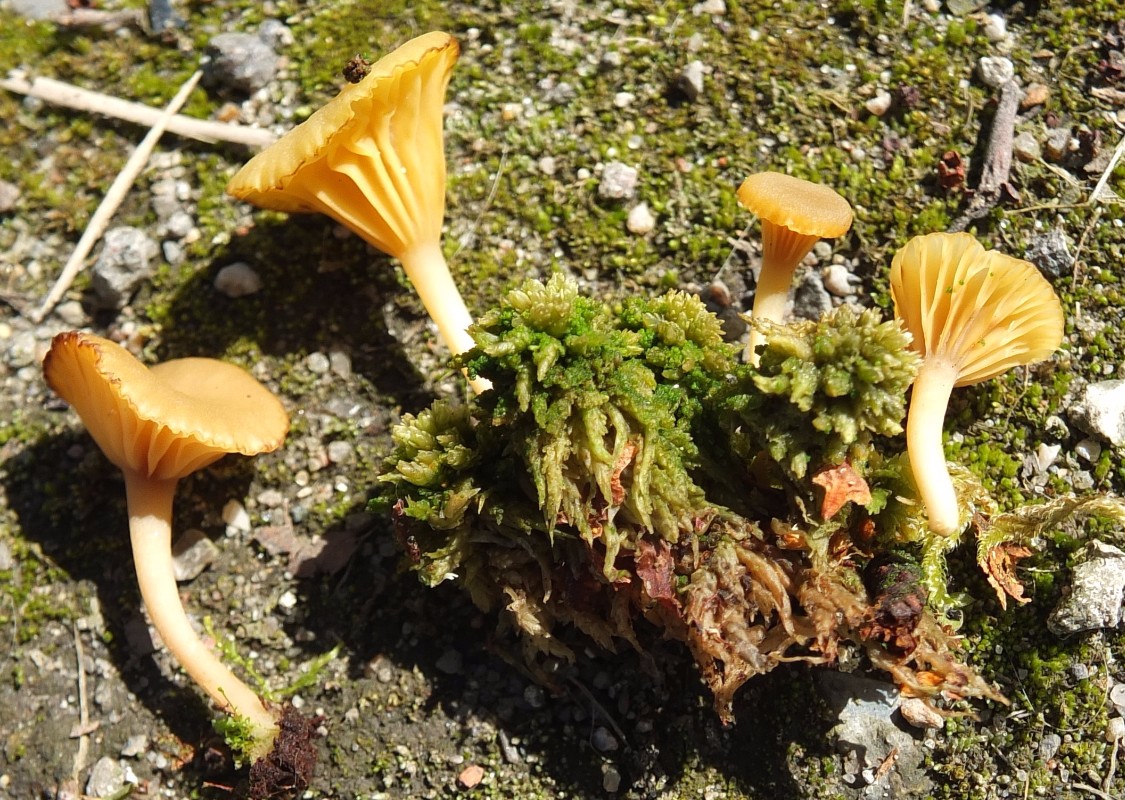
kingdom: Fungi
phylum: Basidiomycota
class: Agaricomycetes
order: Agaricales
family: Hygrophoraceae
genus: Lichenomphalia
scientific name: Lichenomphalia umbellifera
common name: tørve-lavhat
